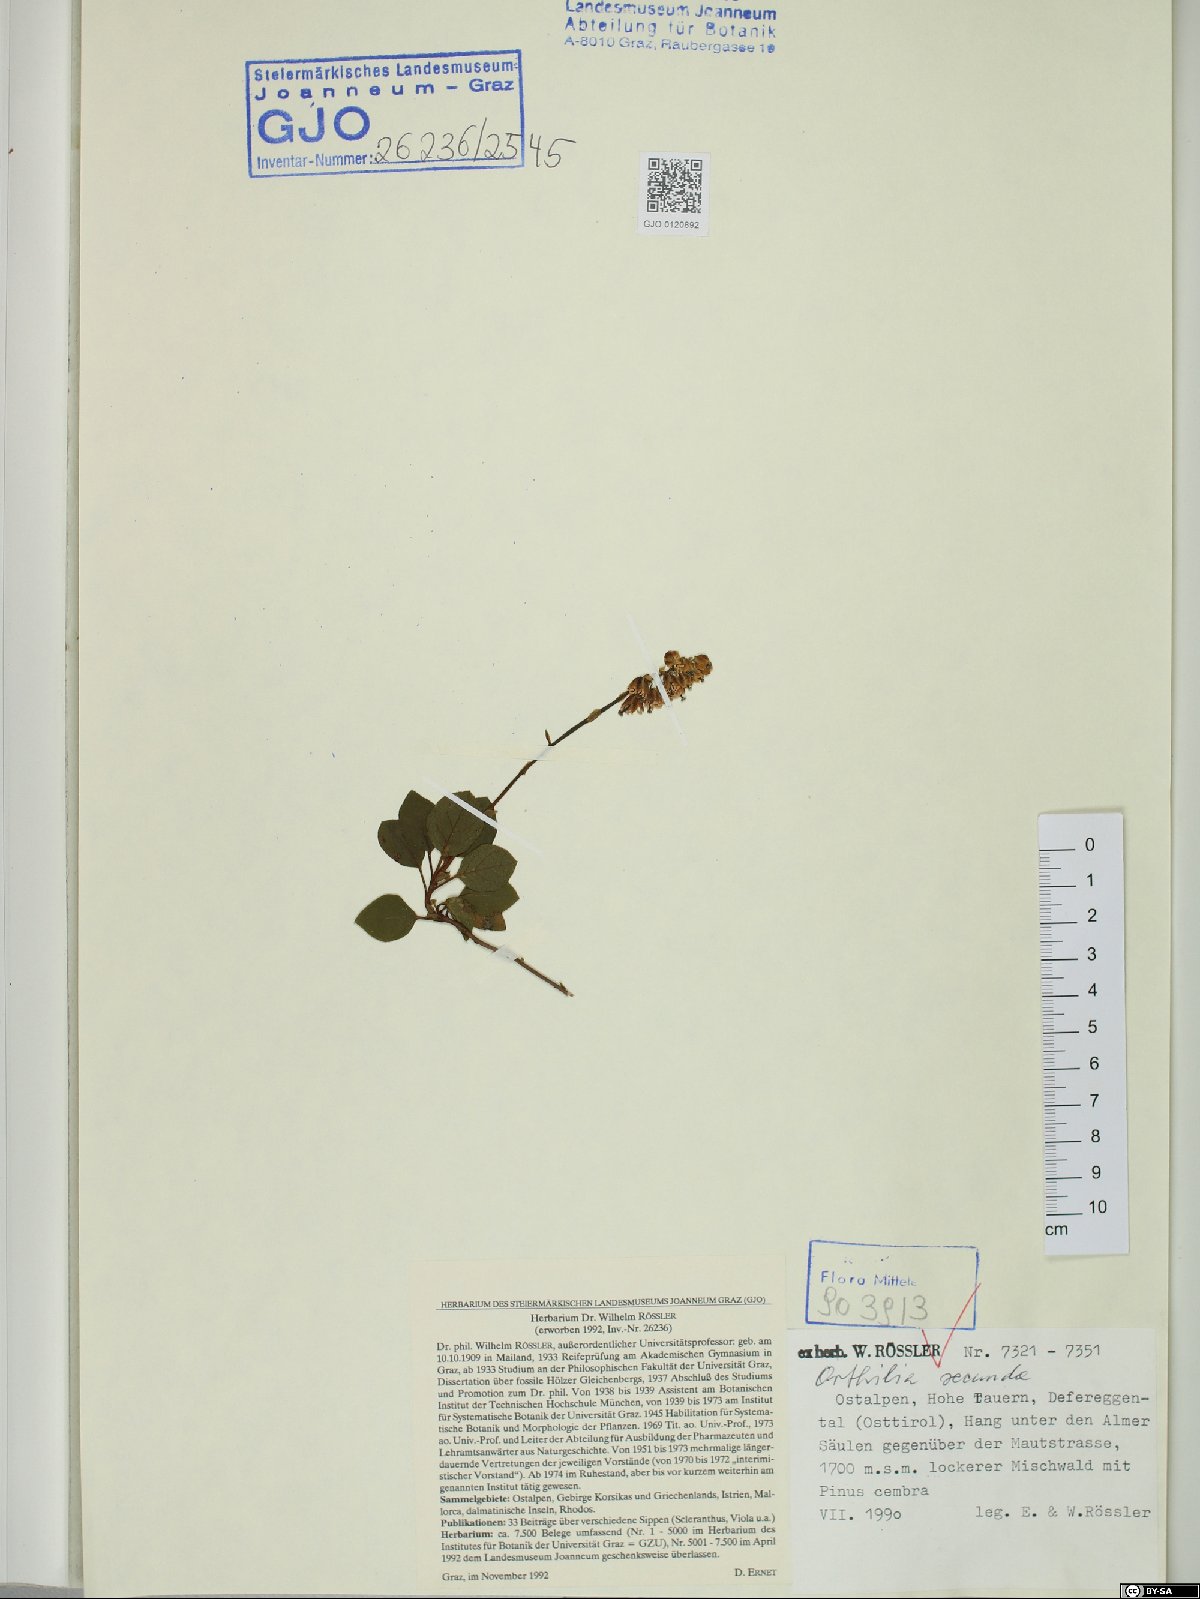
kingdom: Plantae
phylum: Tracheophyta
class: Magnoliopsida
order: Ericales
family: Ericaceae
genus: Orthilia
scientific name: Orthilia secunda
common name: One-sided orthilia
